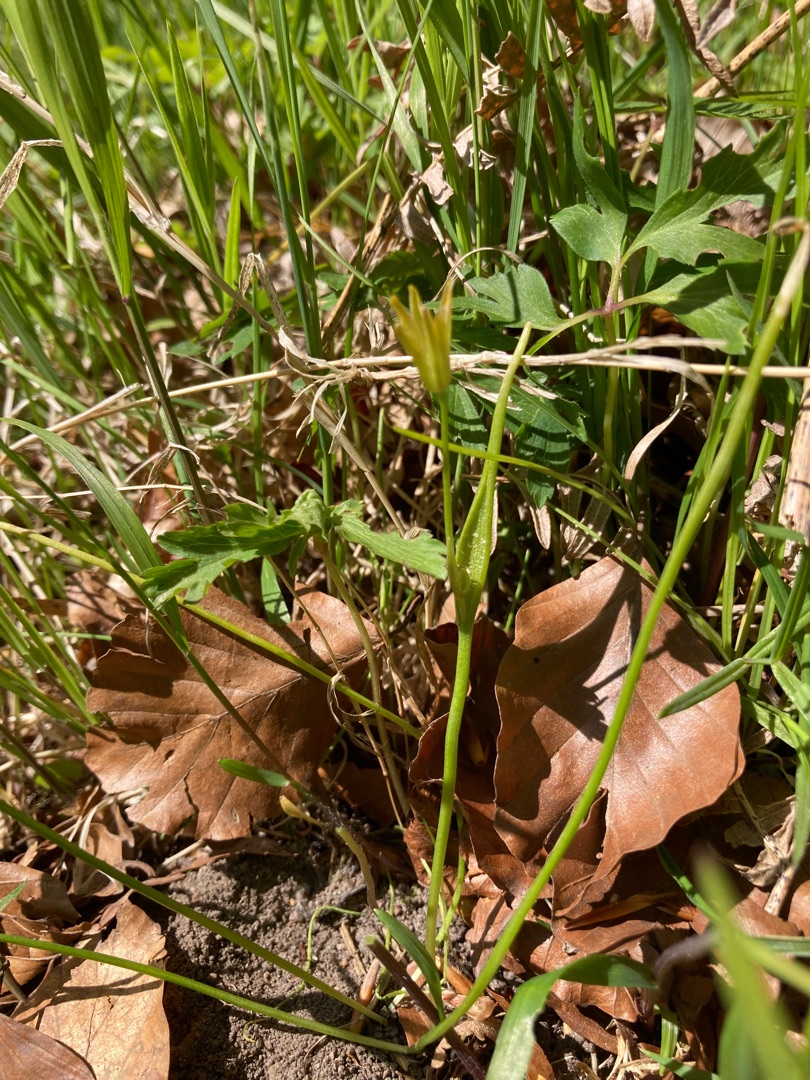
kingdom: Plantae
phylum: Tracheophyta
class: Liliopsida
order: Liliales
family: Liliaceae
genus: Gagea
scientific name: Gagea spathacea
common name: Hylster-guldstjerne
